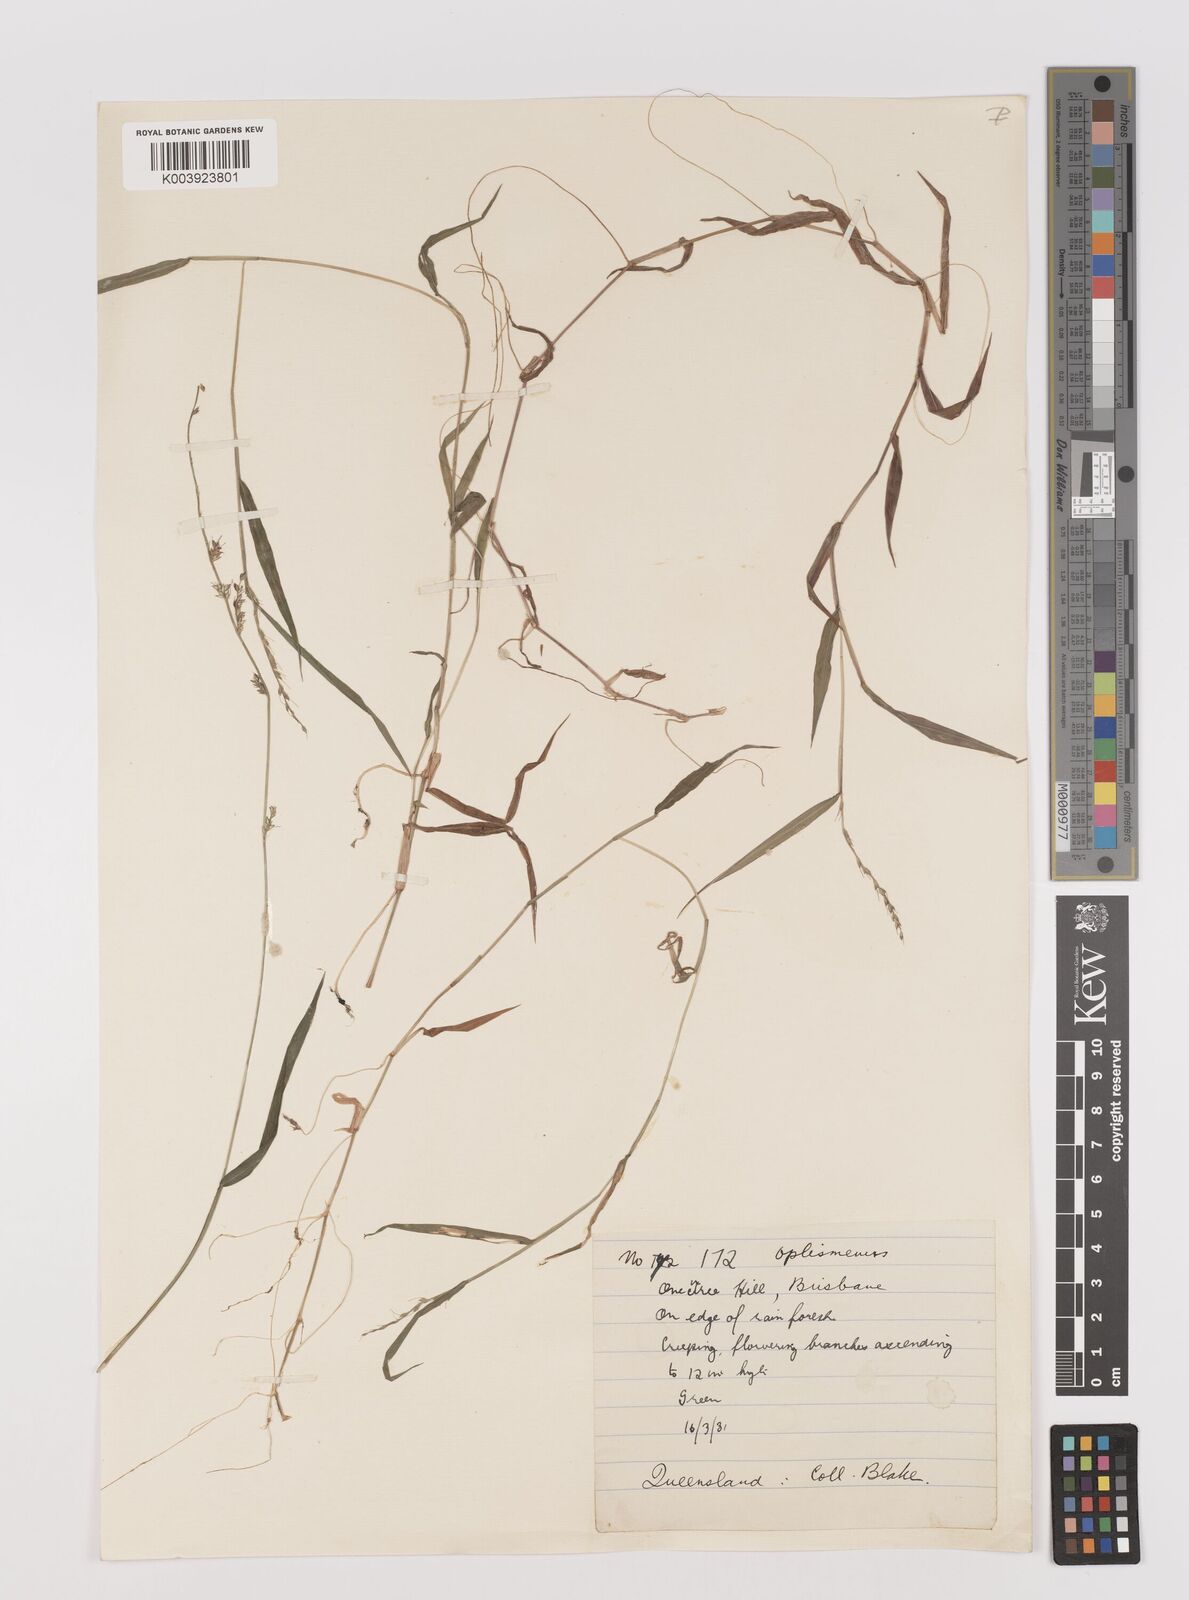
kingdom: Plantae
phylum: Tracheophyta
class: Liliopsida
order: Poales
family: Poaceae
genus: Oplismenus
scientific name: Oplismenus hirtellus
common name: Basketgrass
